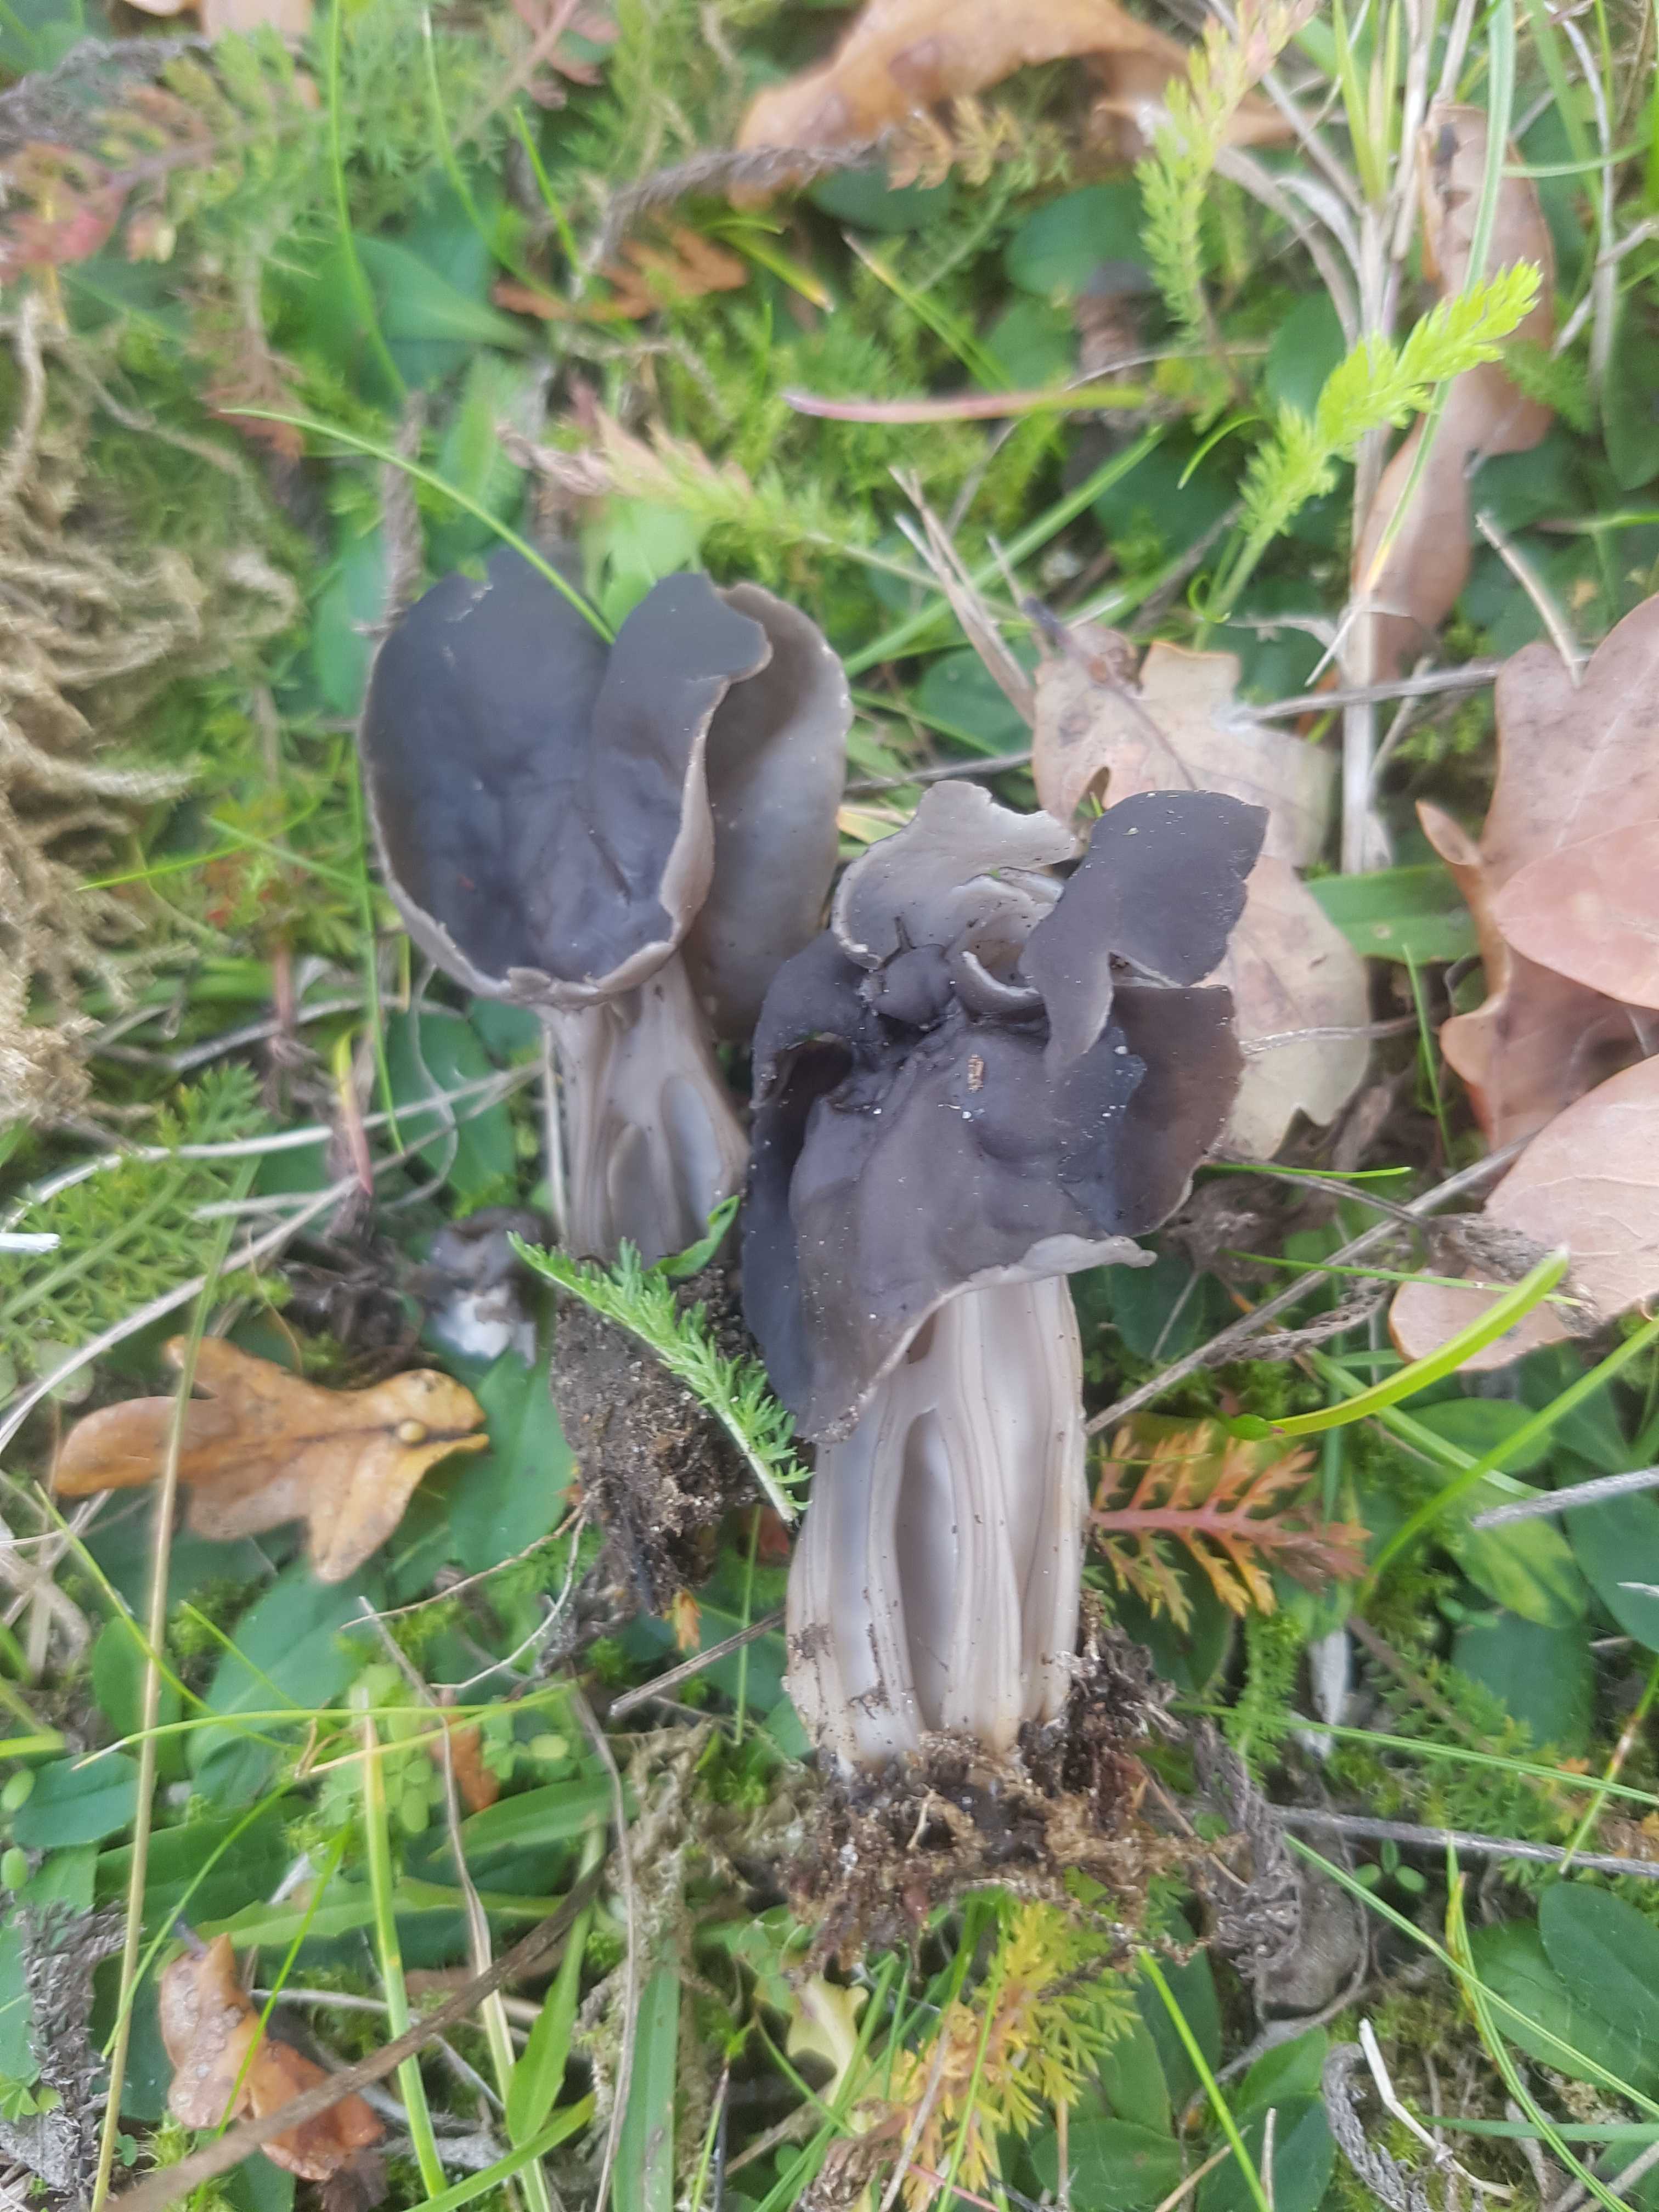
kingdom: Fungi
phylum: Ascomycota
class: Pezizomycetes
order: Pezizales
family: Helvellaceae
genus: Helvella
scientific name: Helvella lacunosa
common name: grubet foldhat
